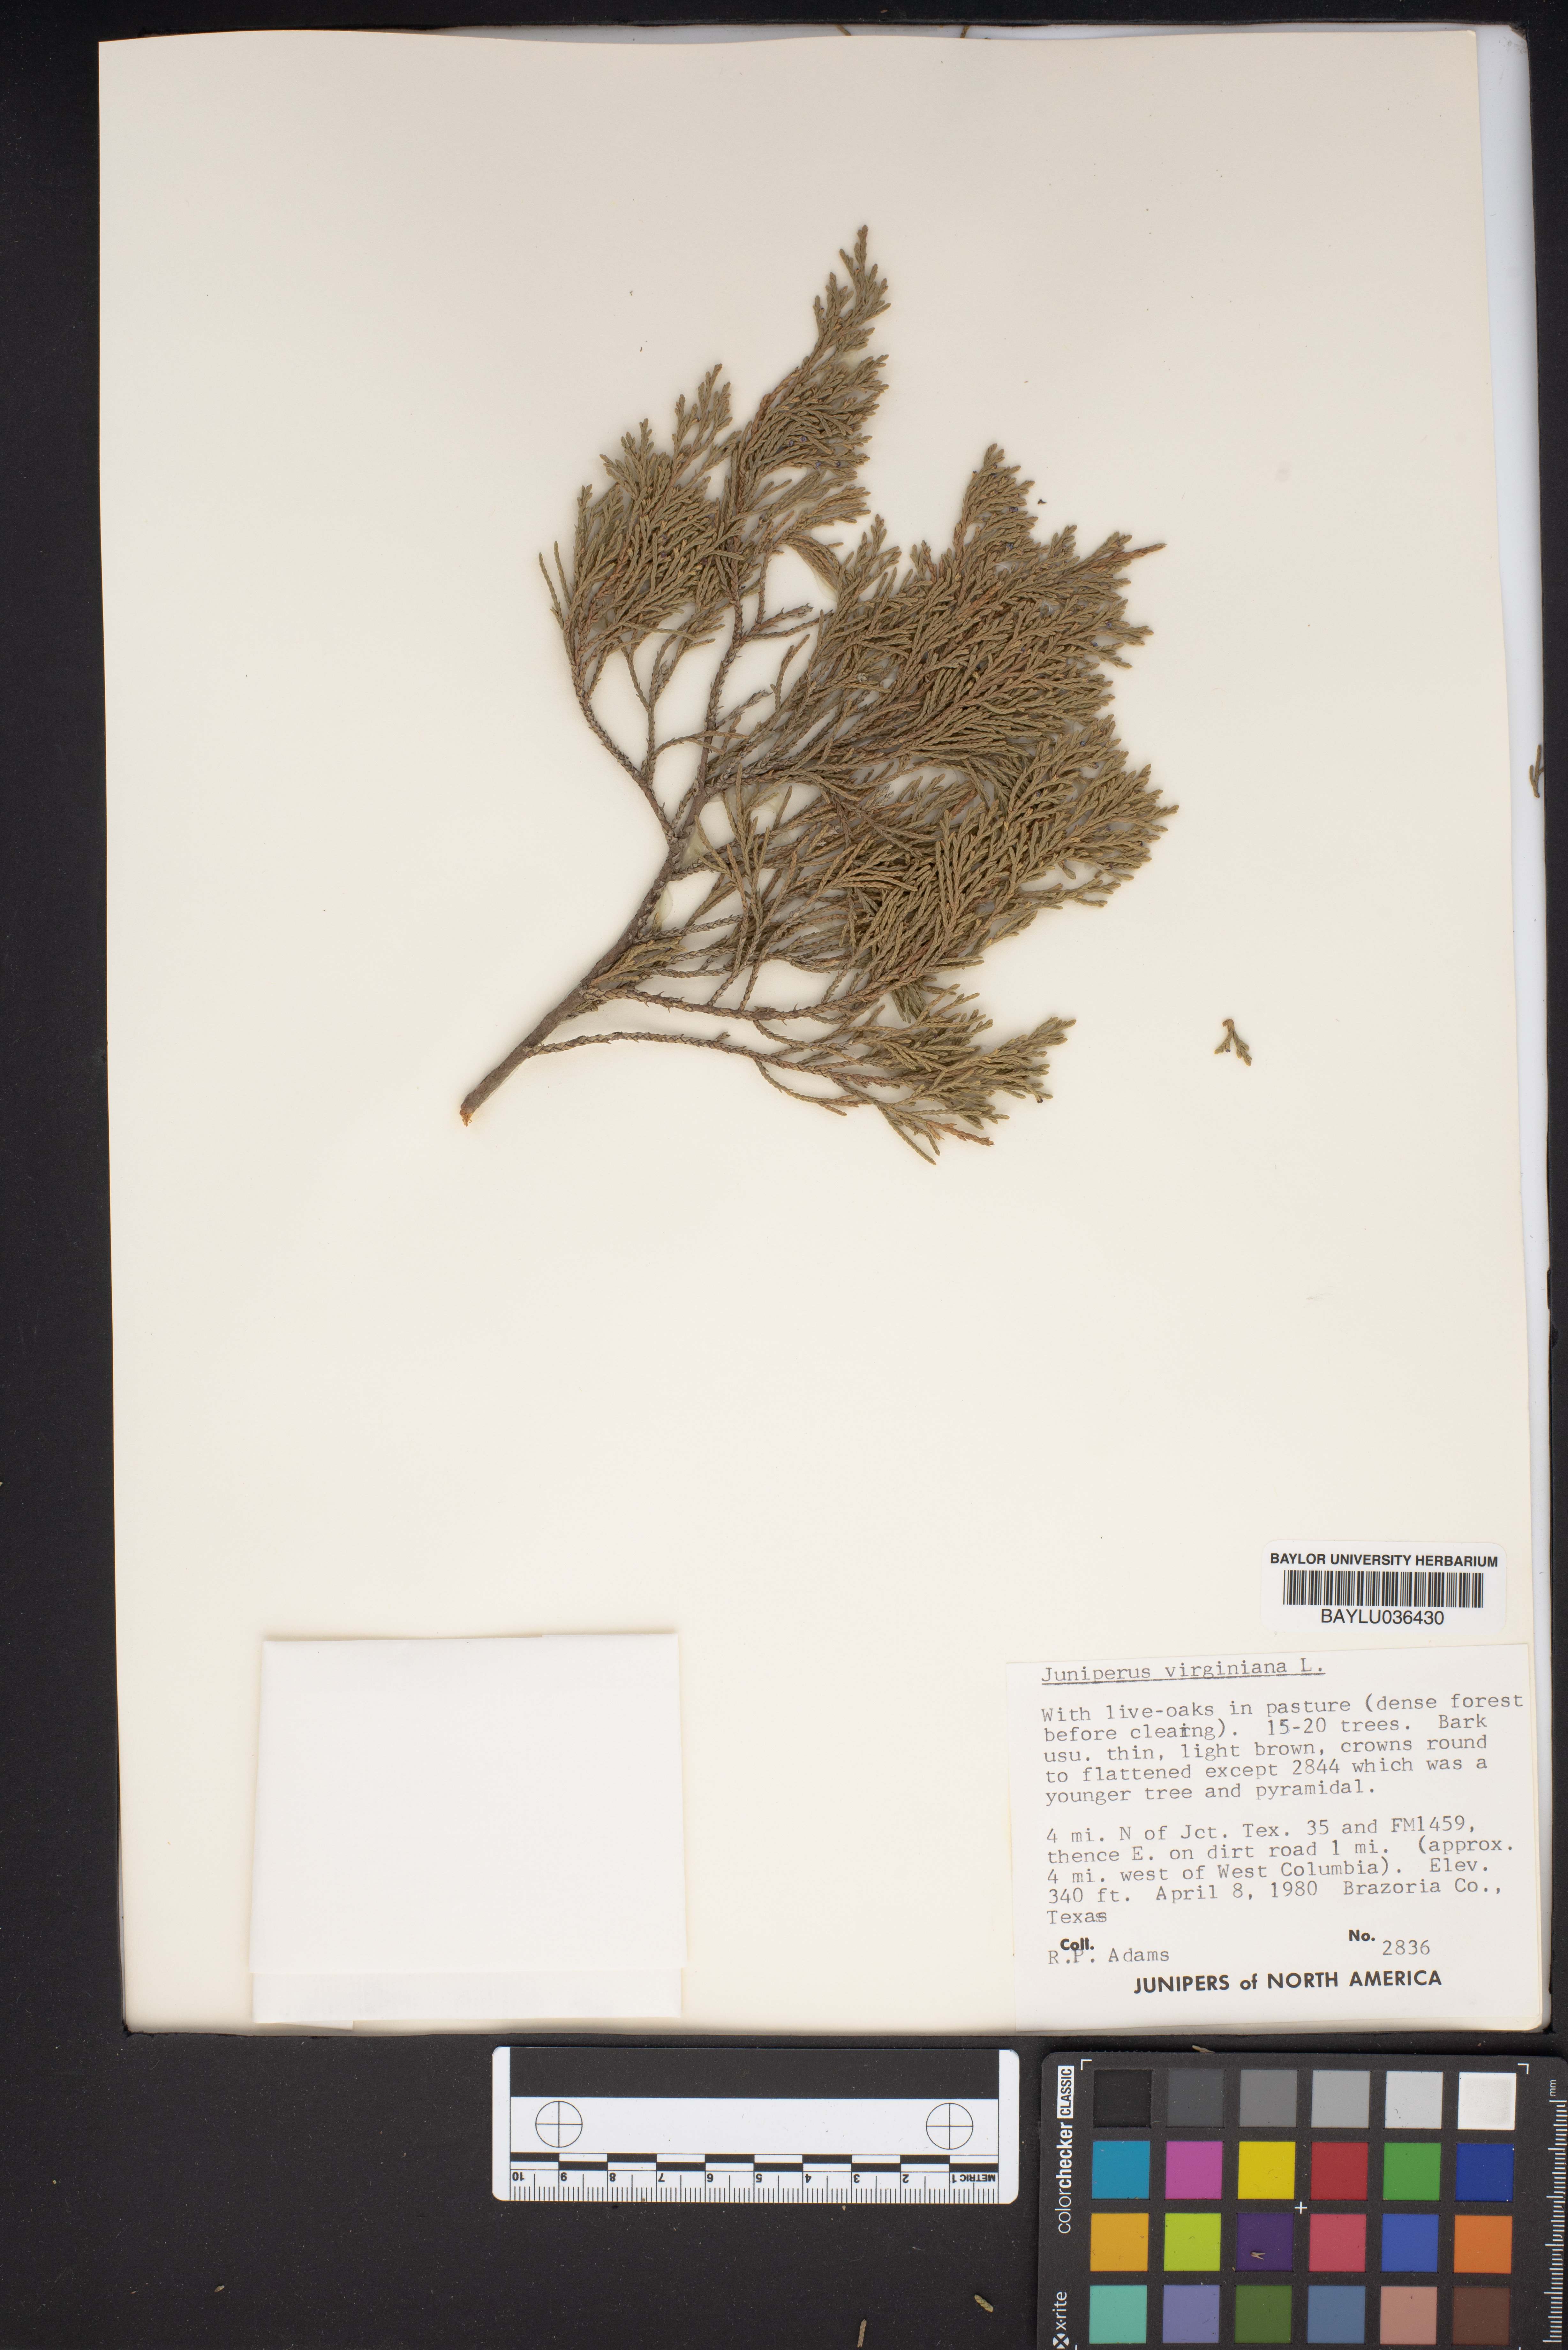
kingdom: Plantae
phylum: Tracheophyta
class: Pinopsida
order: Pinales
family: Cupressaceae
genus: Juniperus
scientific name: Juniperus virginiana
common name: Red juniper
